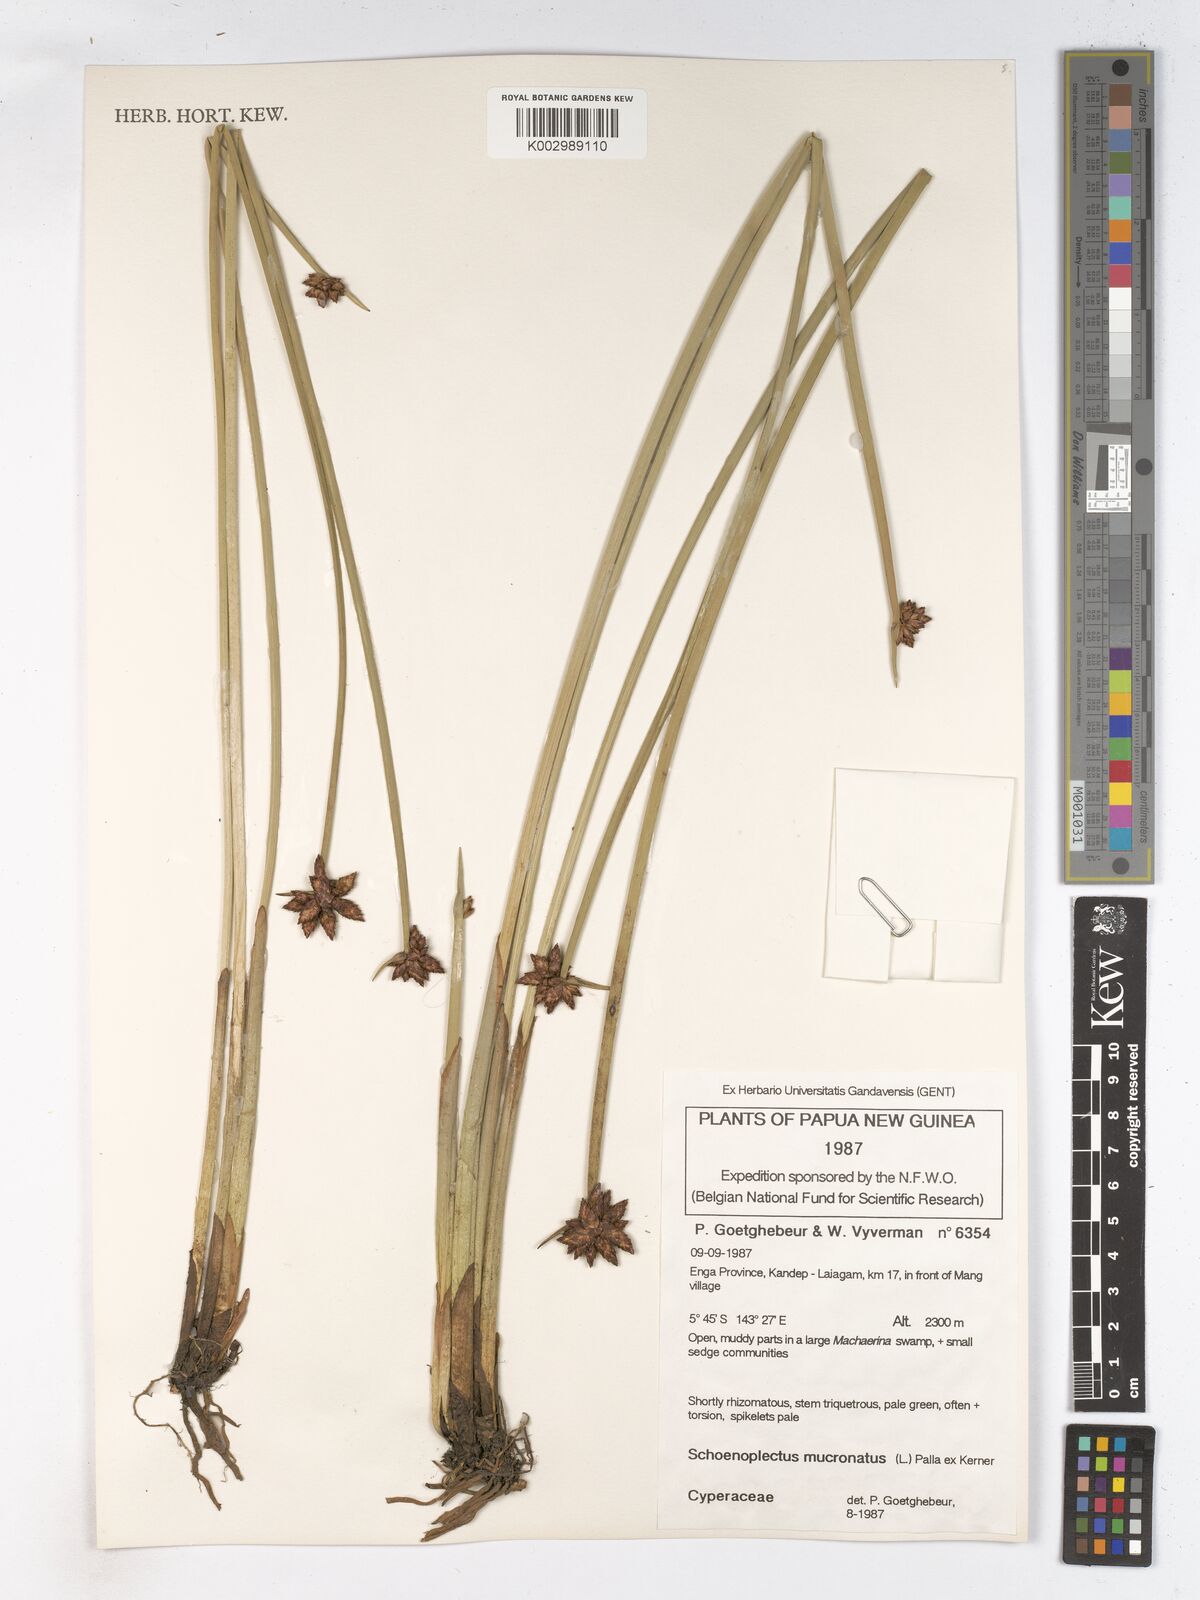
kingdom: Plantae
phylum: Tracheophyta
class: Liliopsida
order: Poales
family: Cyperaceae
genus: Schoenoplectiella
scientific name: Schoenoplectiella mucronata
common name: Bog bulrush
